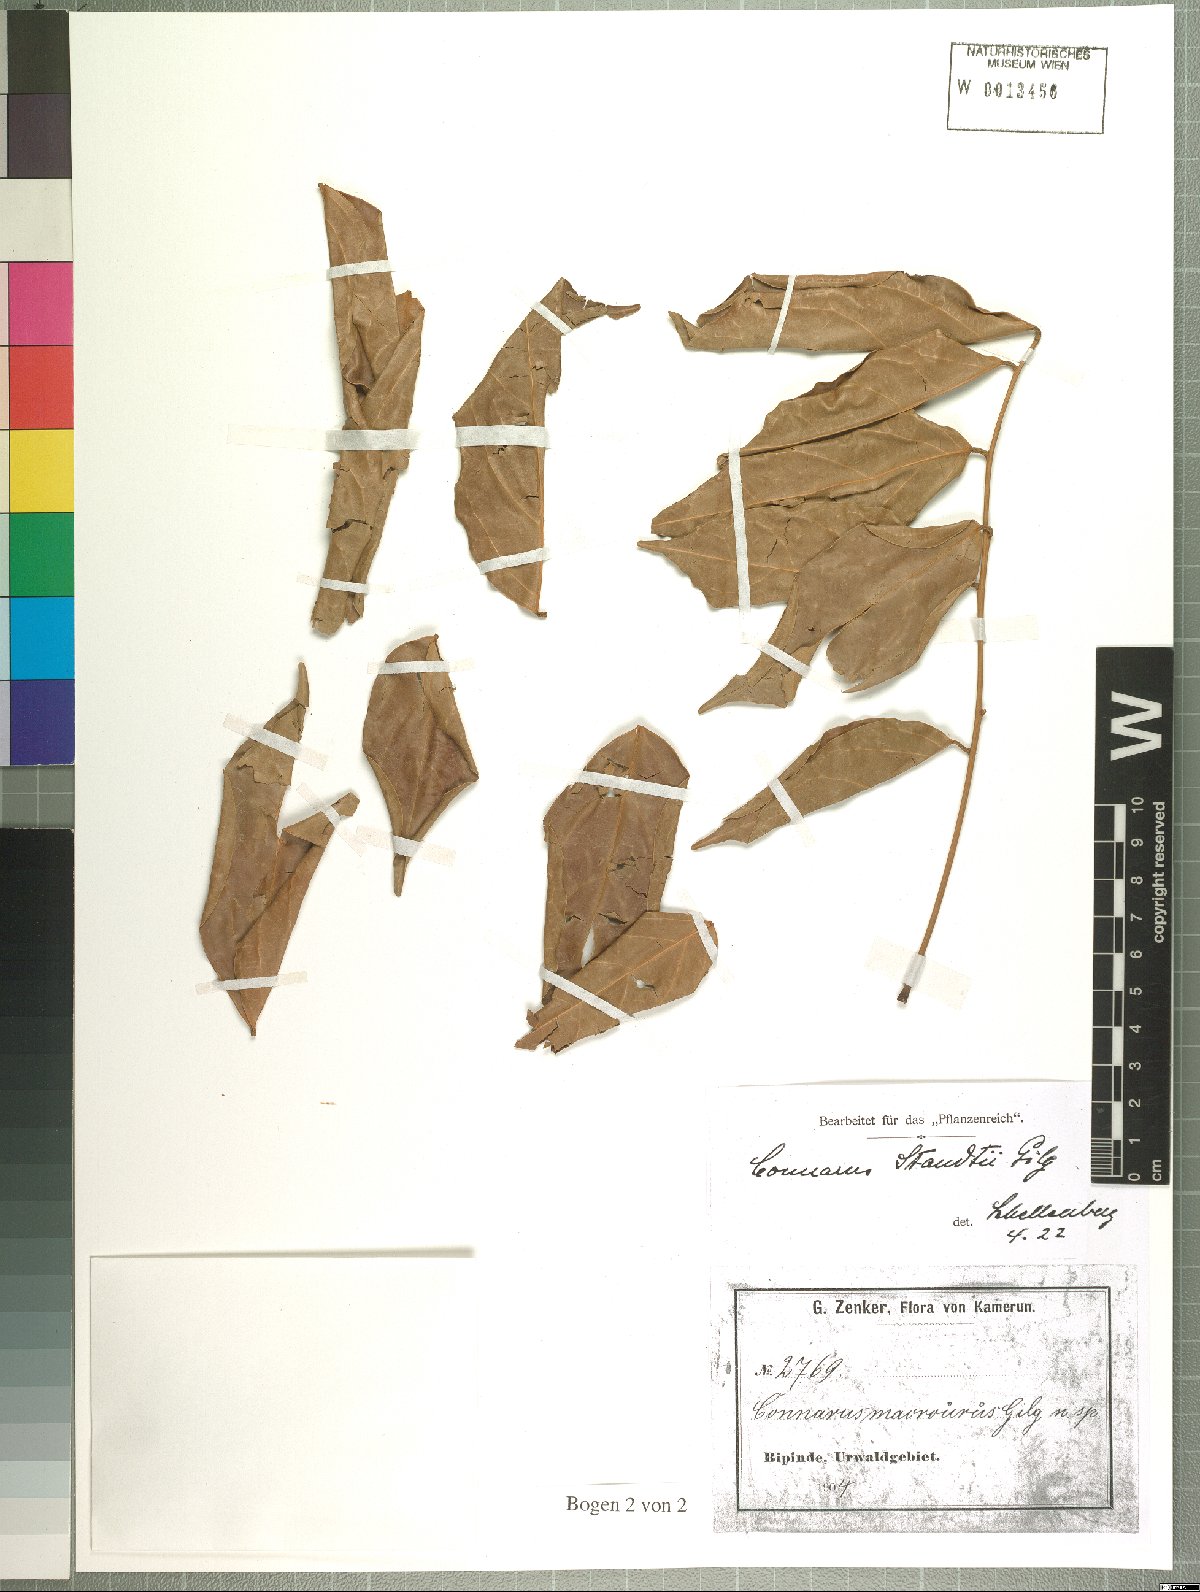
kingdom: Plantae
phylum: Tracheophyta
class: Magnoliopsida
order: Oxalidales
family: Connaraceae
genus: Connarus
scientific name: Connarus staudtii
